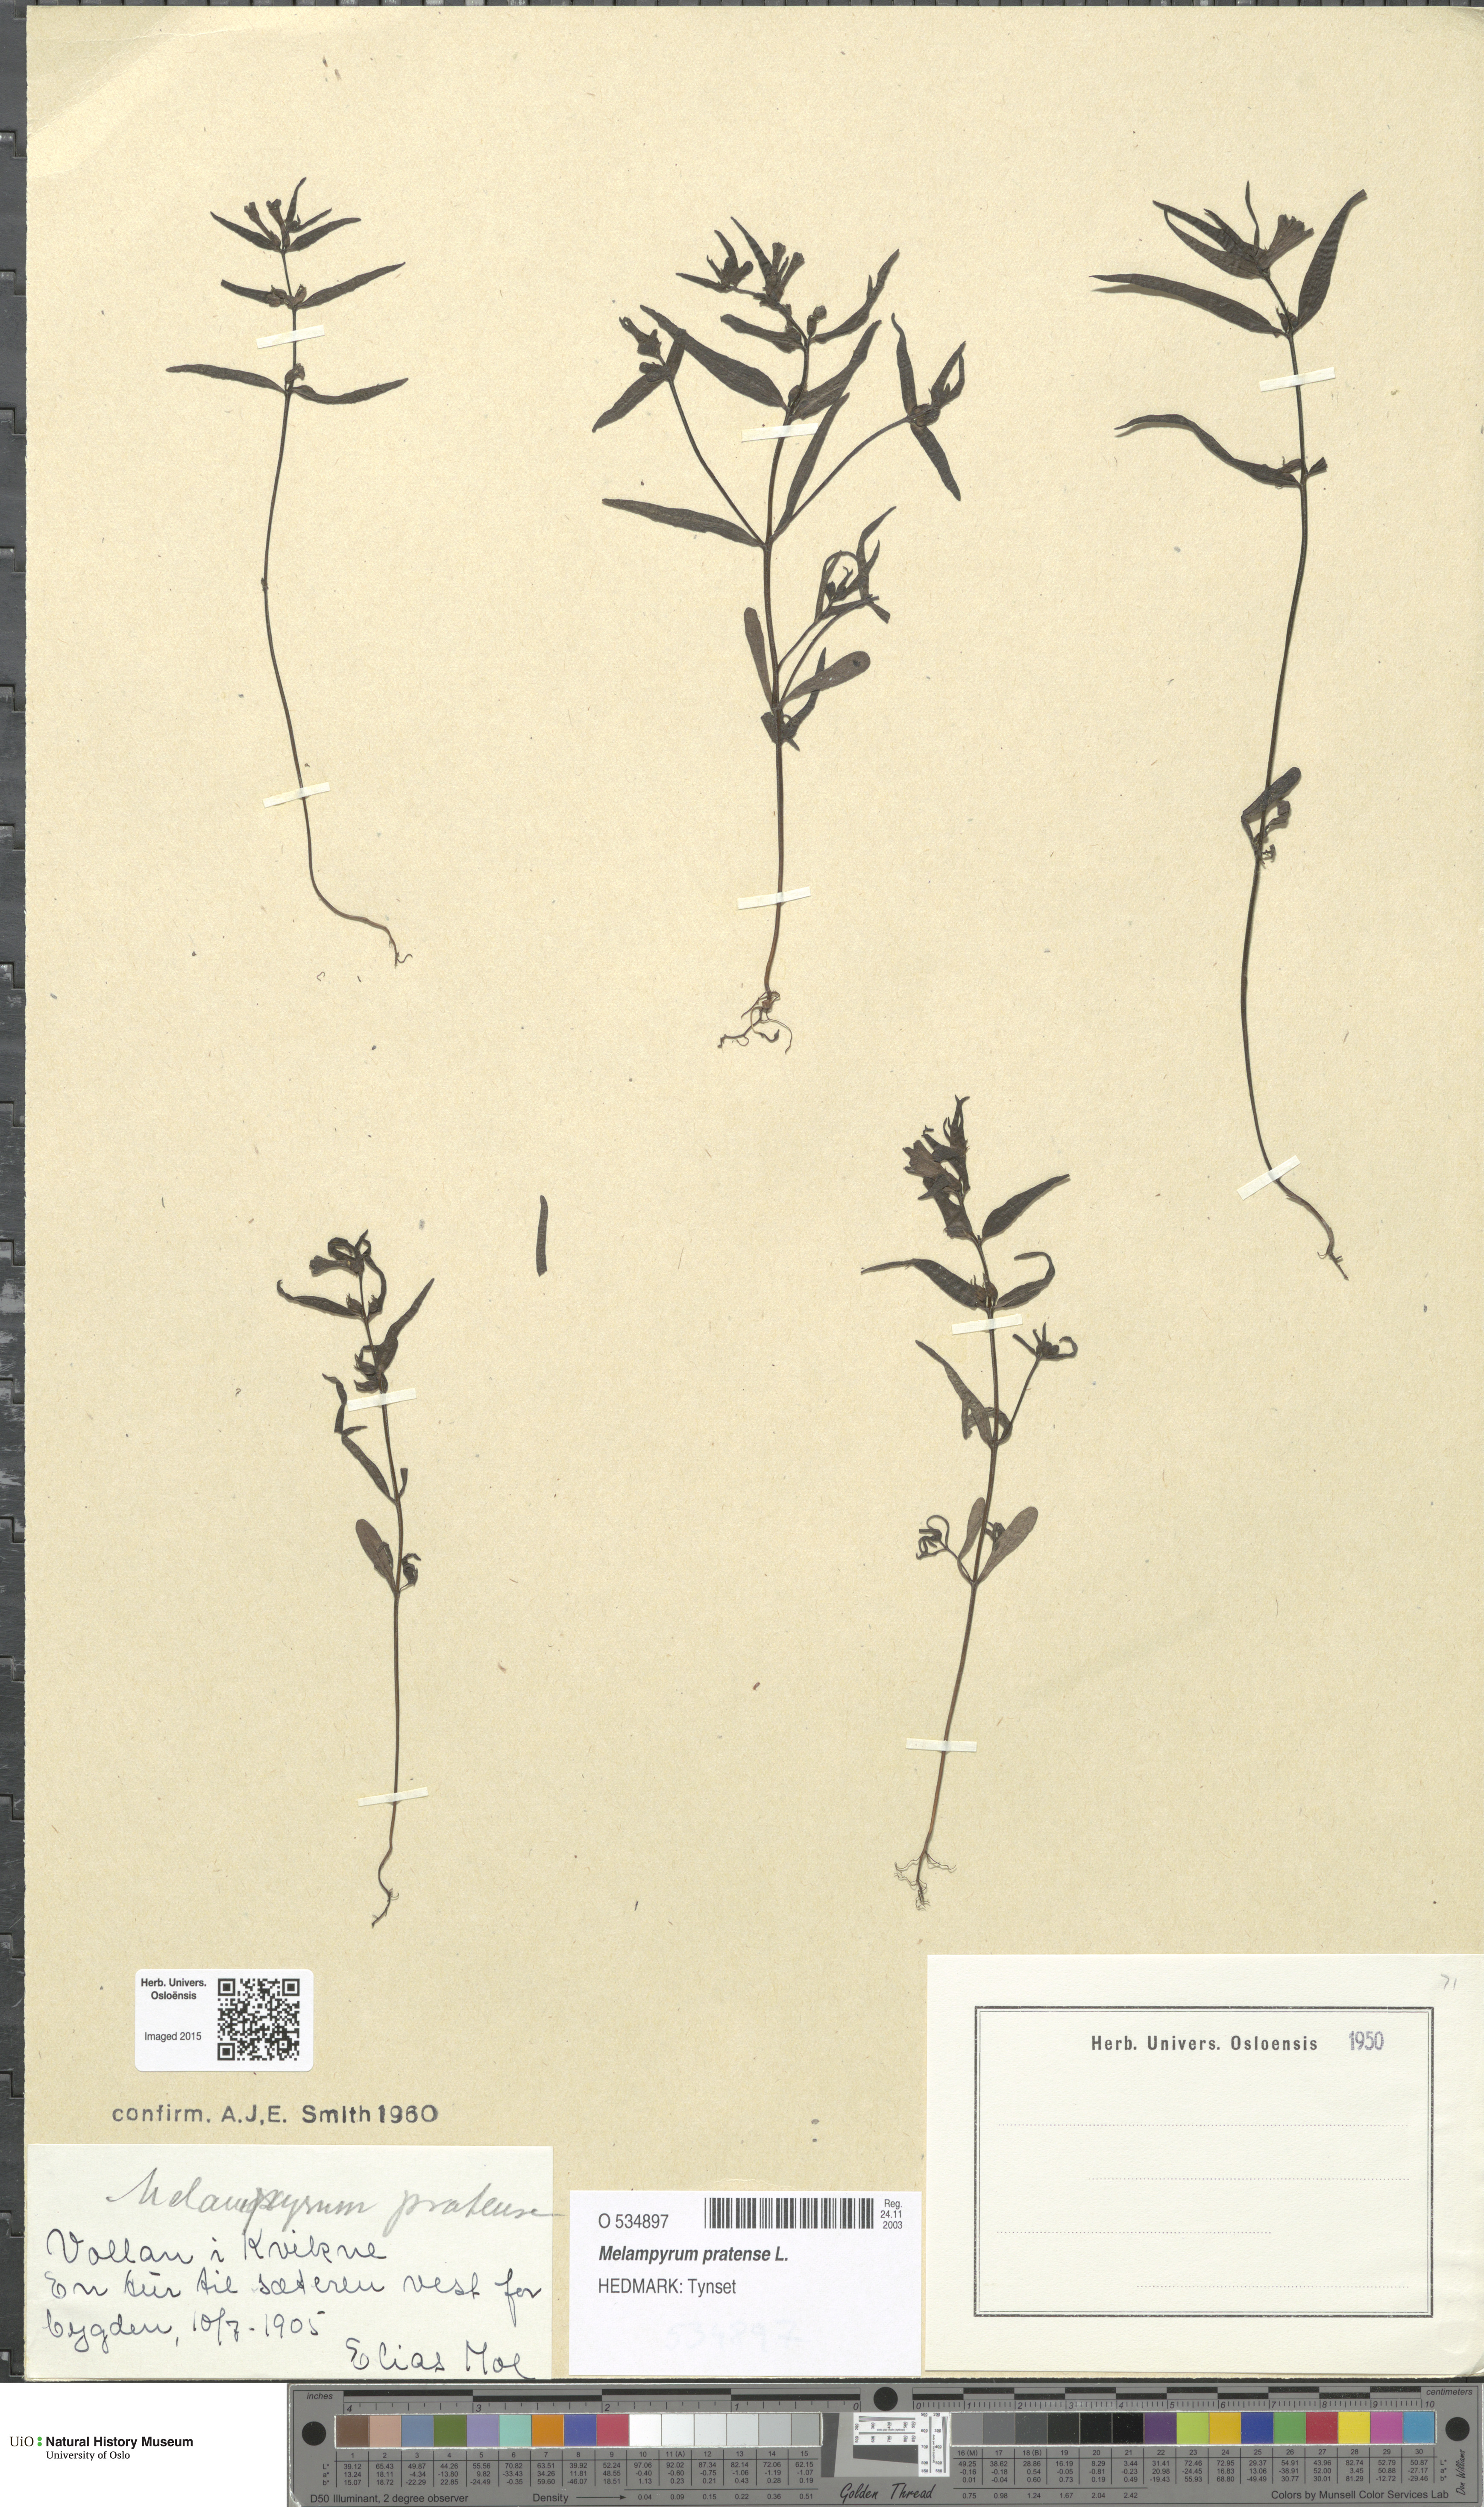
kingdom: Plantae
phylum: Tracheophyta
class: Magnoliopsida
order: Lamiales
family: Orobanchaceae
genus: Melampyrum
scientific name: Melampyrum pratense
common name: Common cow-wheat
